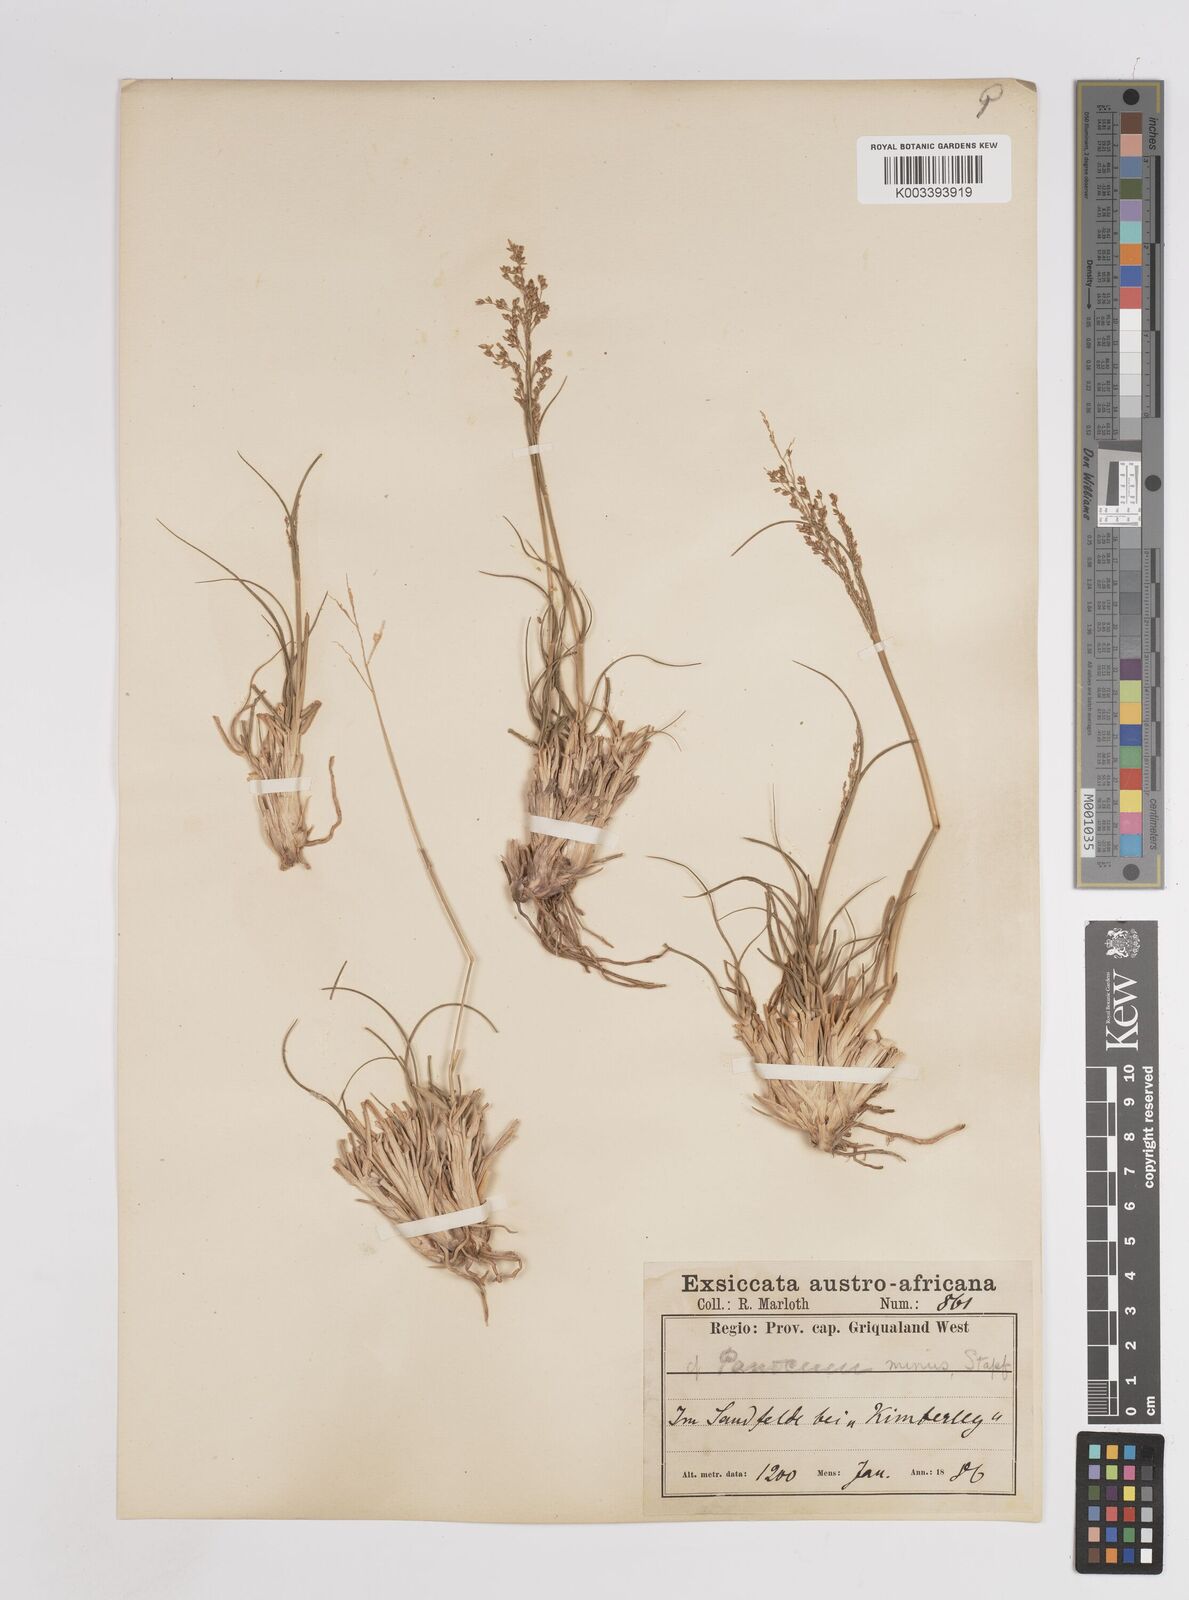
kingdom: Plantae
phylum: Tracheophyta
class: Liliopsida
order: Poales
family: Poaceae
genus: Panicum
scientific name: Panicum stapfianum
